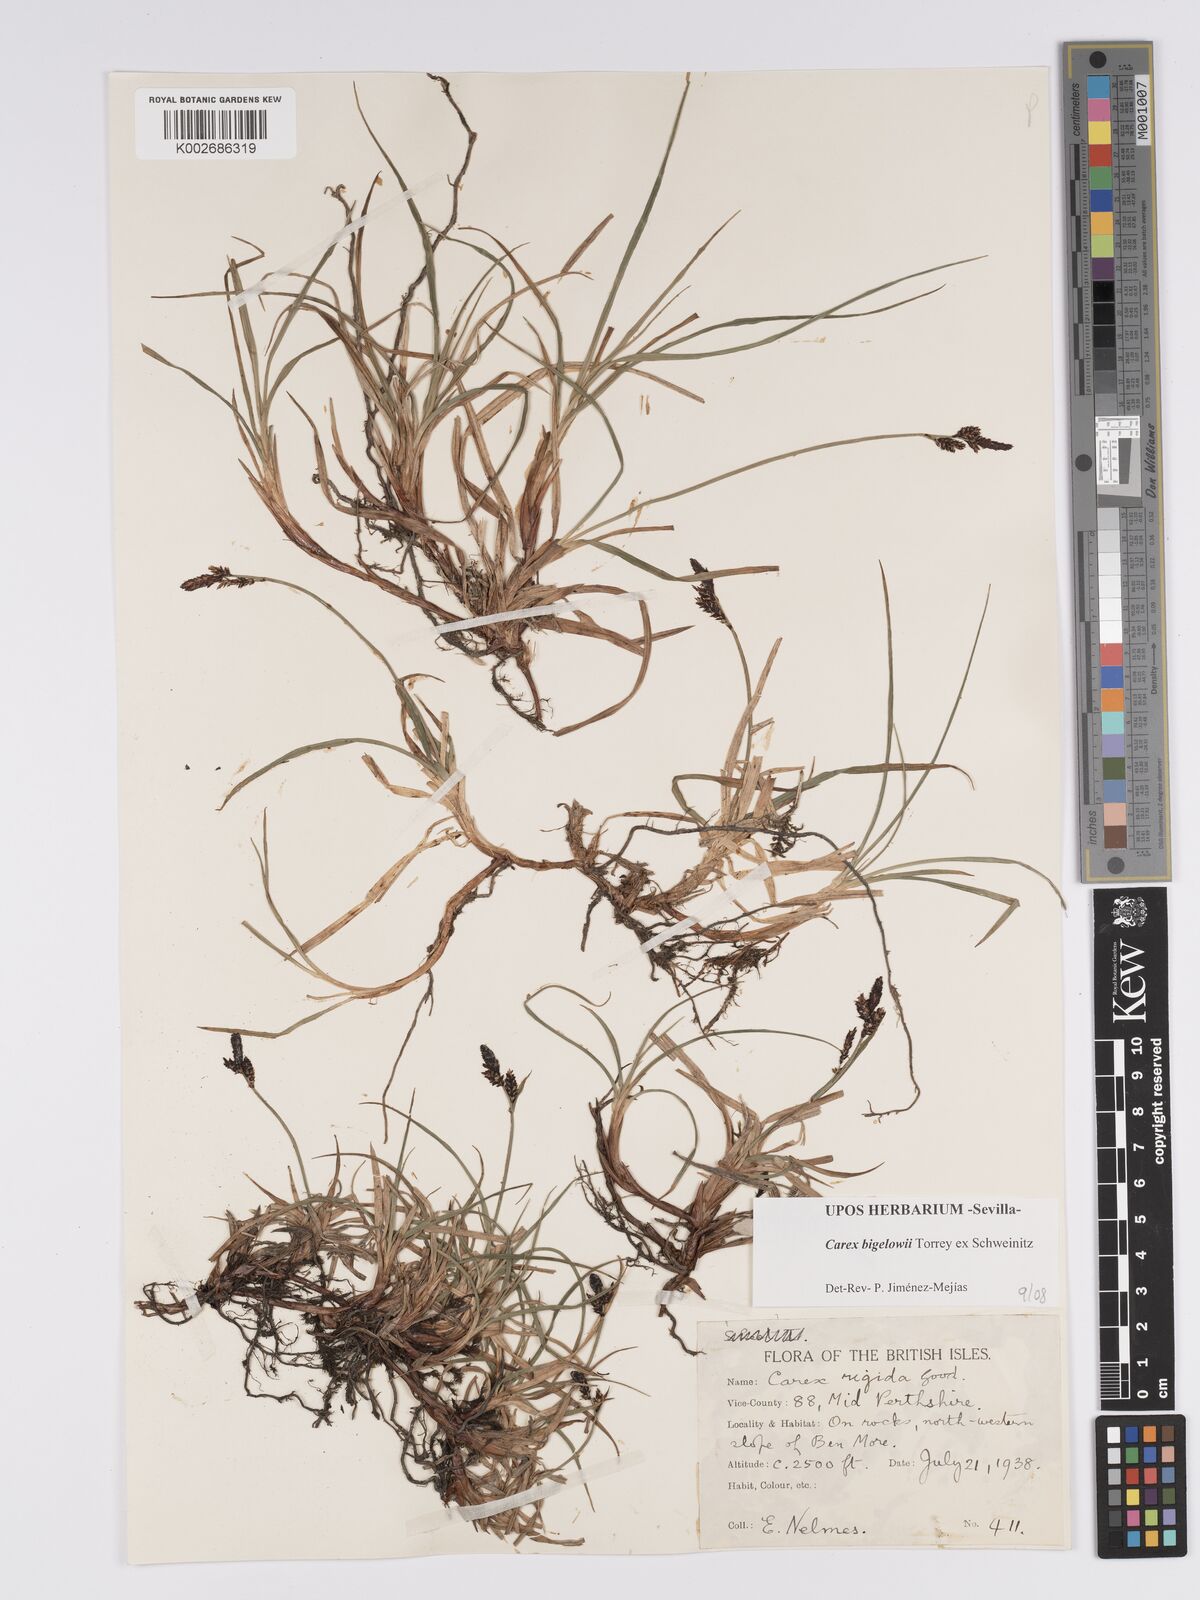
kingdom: Plantae
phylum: Tracheophyta
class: Liliopsida
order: Poales
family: Cyperaceae
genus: Carex
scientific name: Carex bigelowii
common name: Stiff sedge
